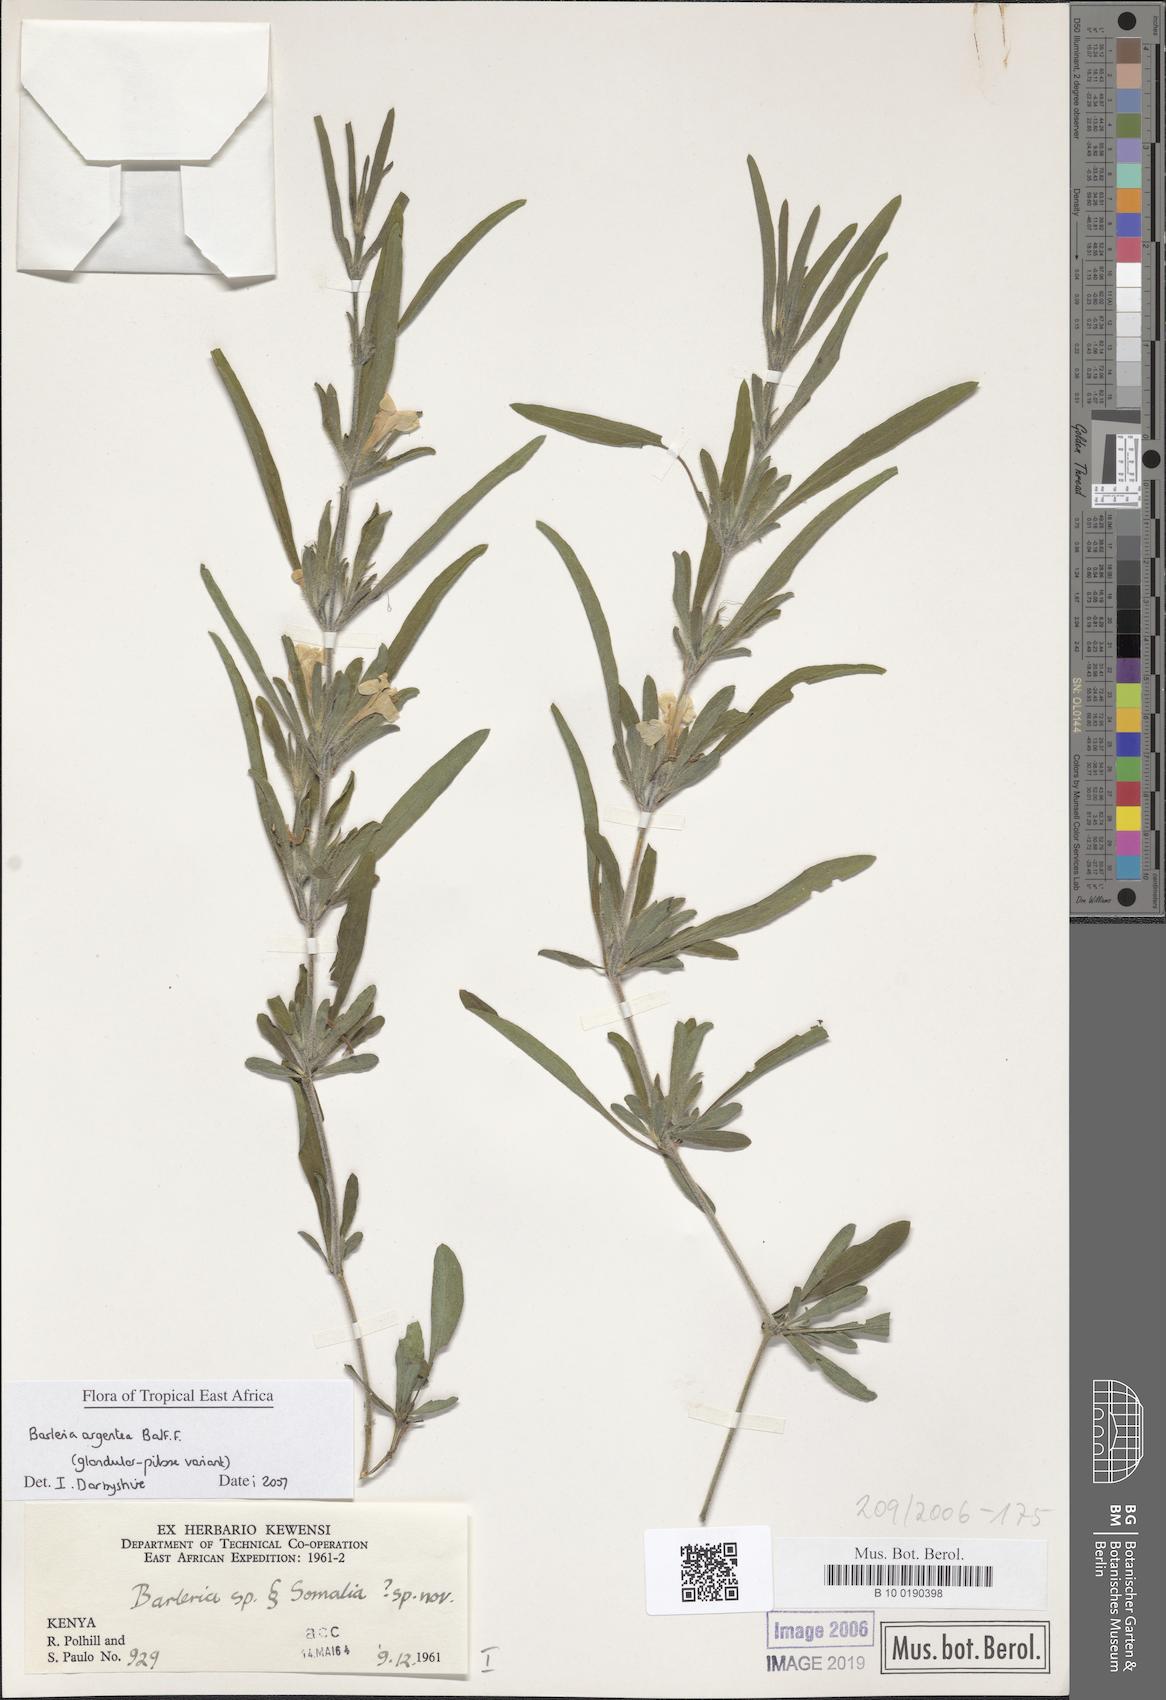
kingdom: Plantae
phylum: Tracheophyta
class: Magnoliopsida
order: Lamiales
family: Acanthaceae
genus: Barleria
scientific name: Barleria
